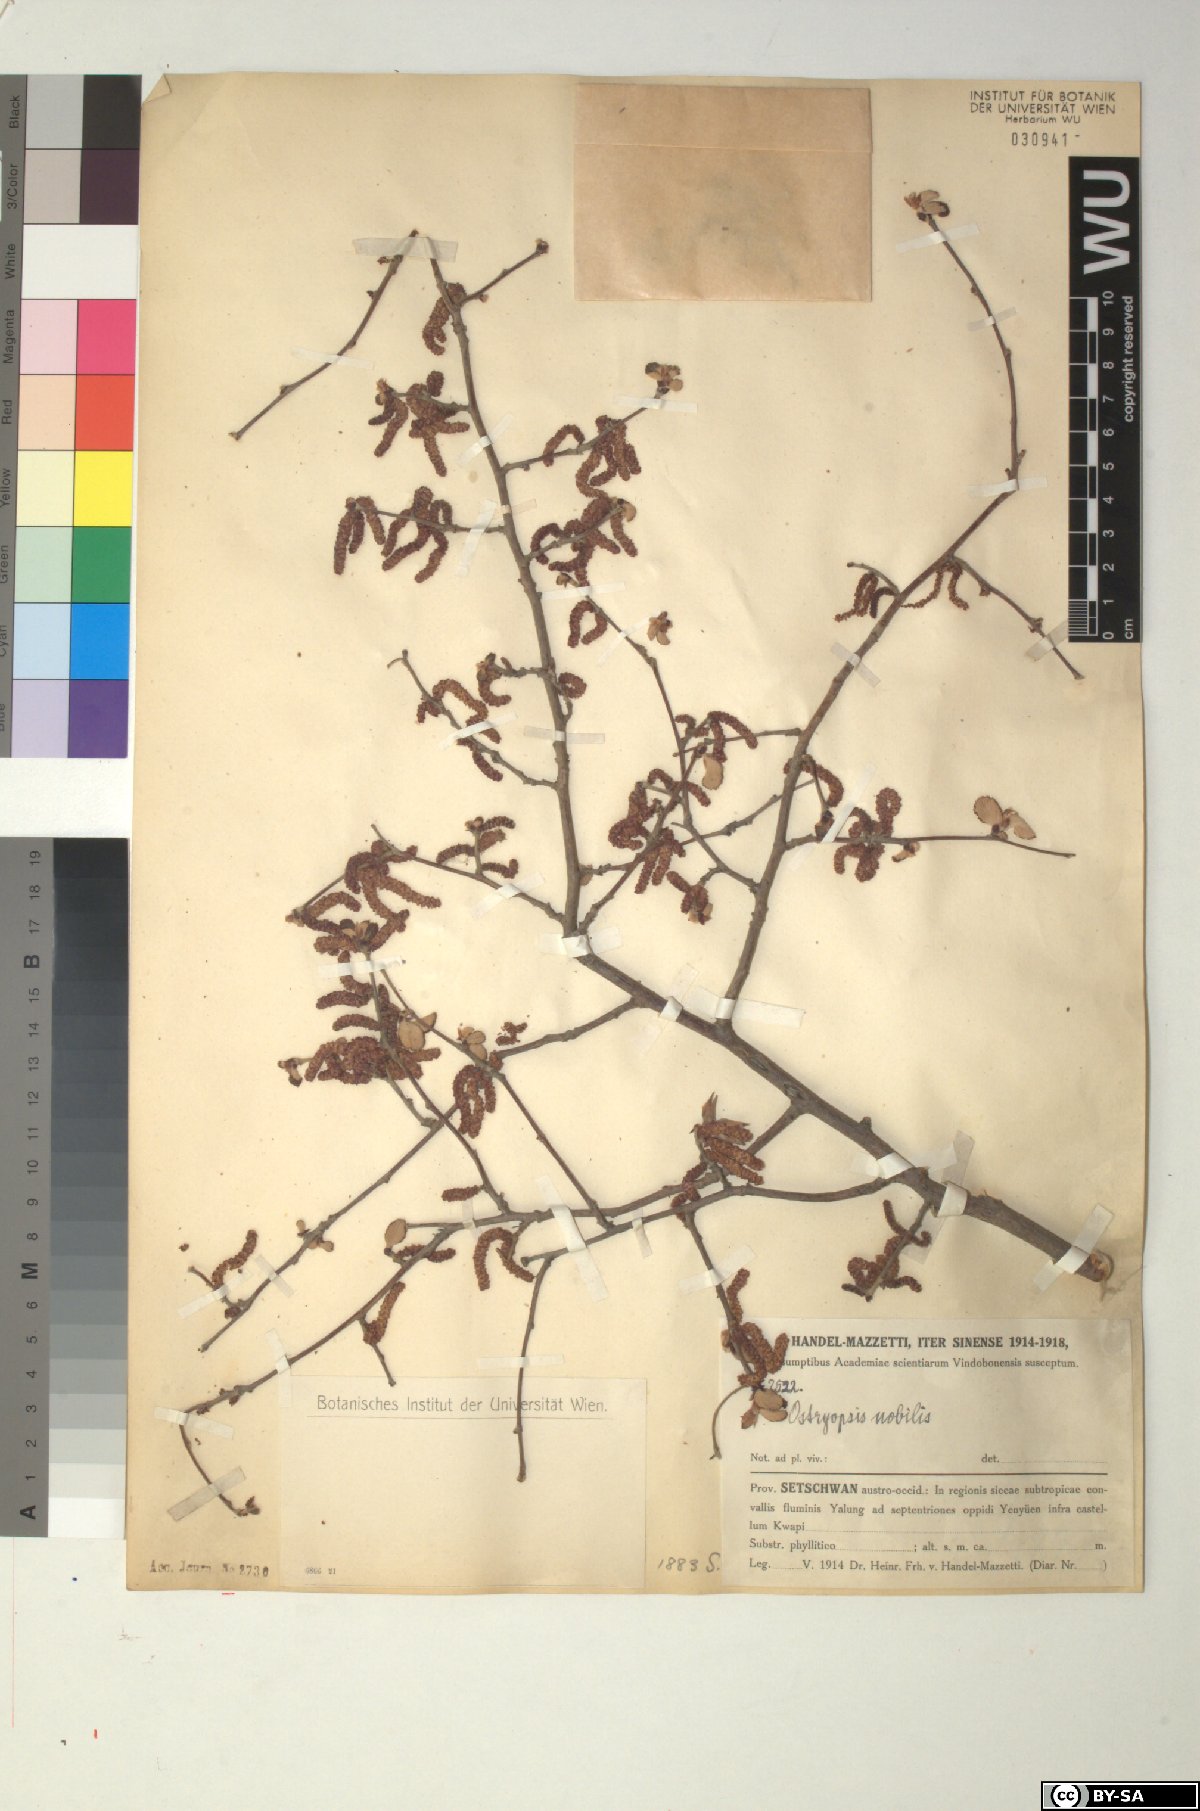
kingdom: Plantae
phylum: Tracheophyta
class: Magnoliopsida
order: Fagales
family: Betulaceae
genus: Ostryopsis
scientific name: Ostryopsis nobilis
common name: Yunnan tiger hazel
